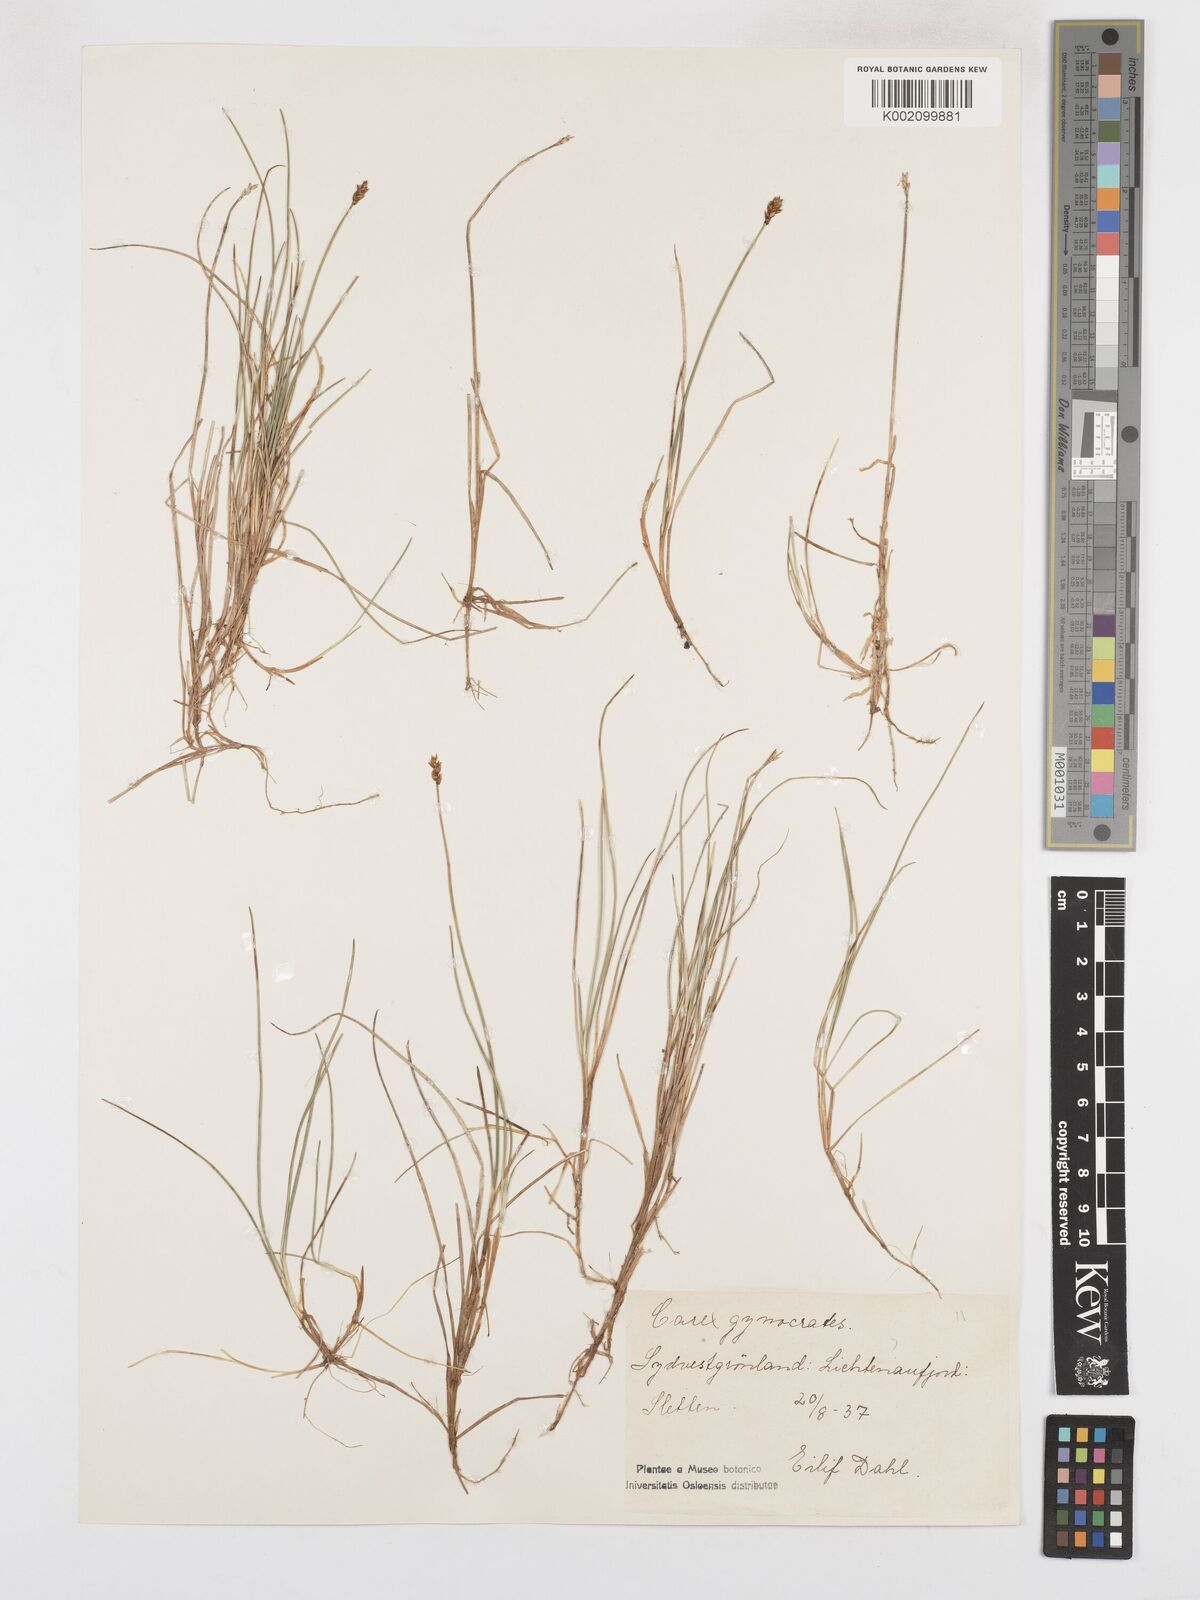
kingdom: Plantae
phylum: Tracheophyta
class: Liliopsida
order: Poales
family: Cyperaceae
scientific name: Cyperaceae
